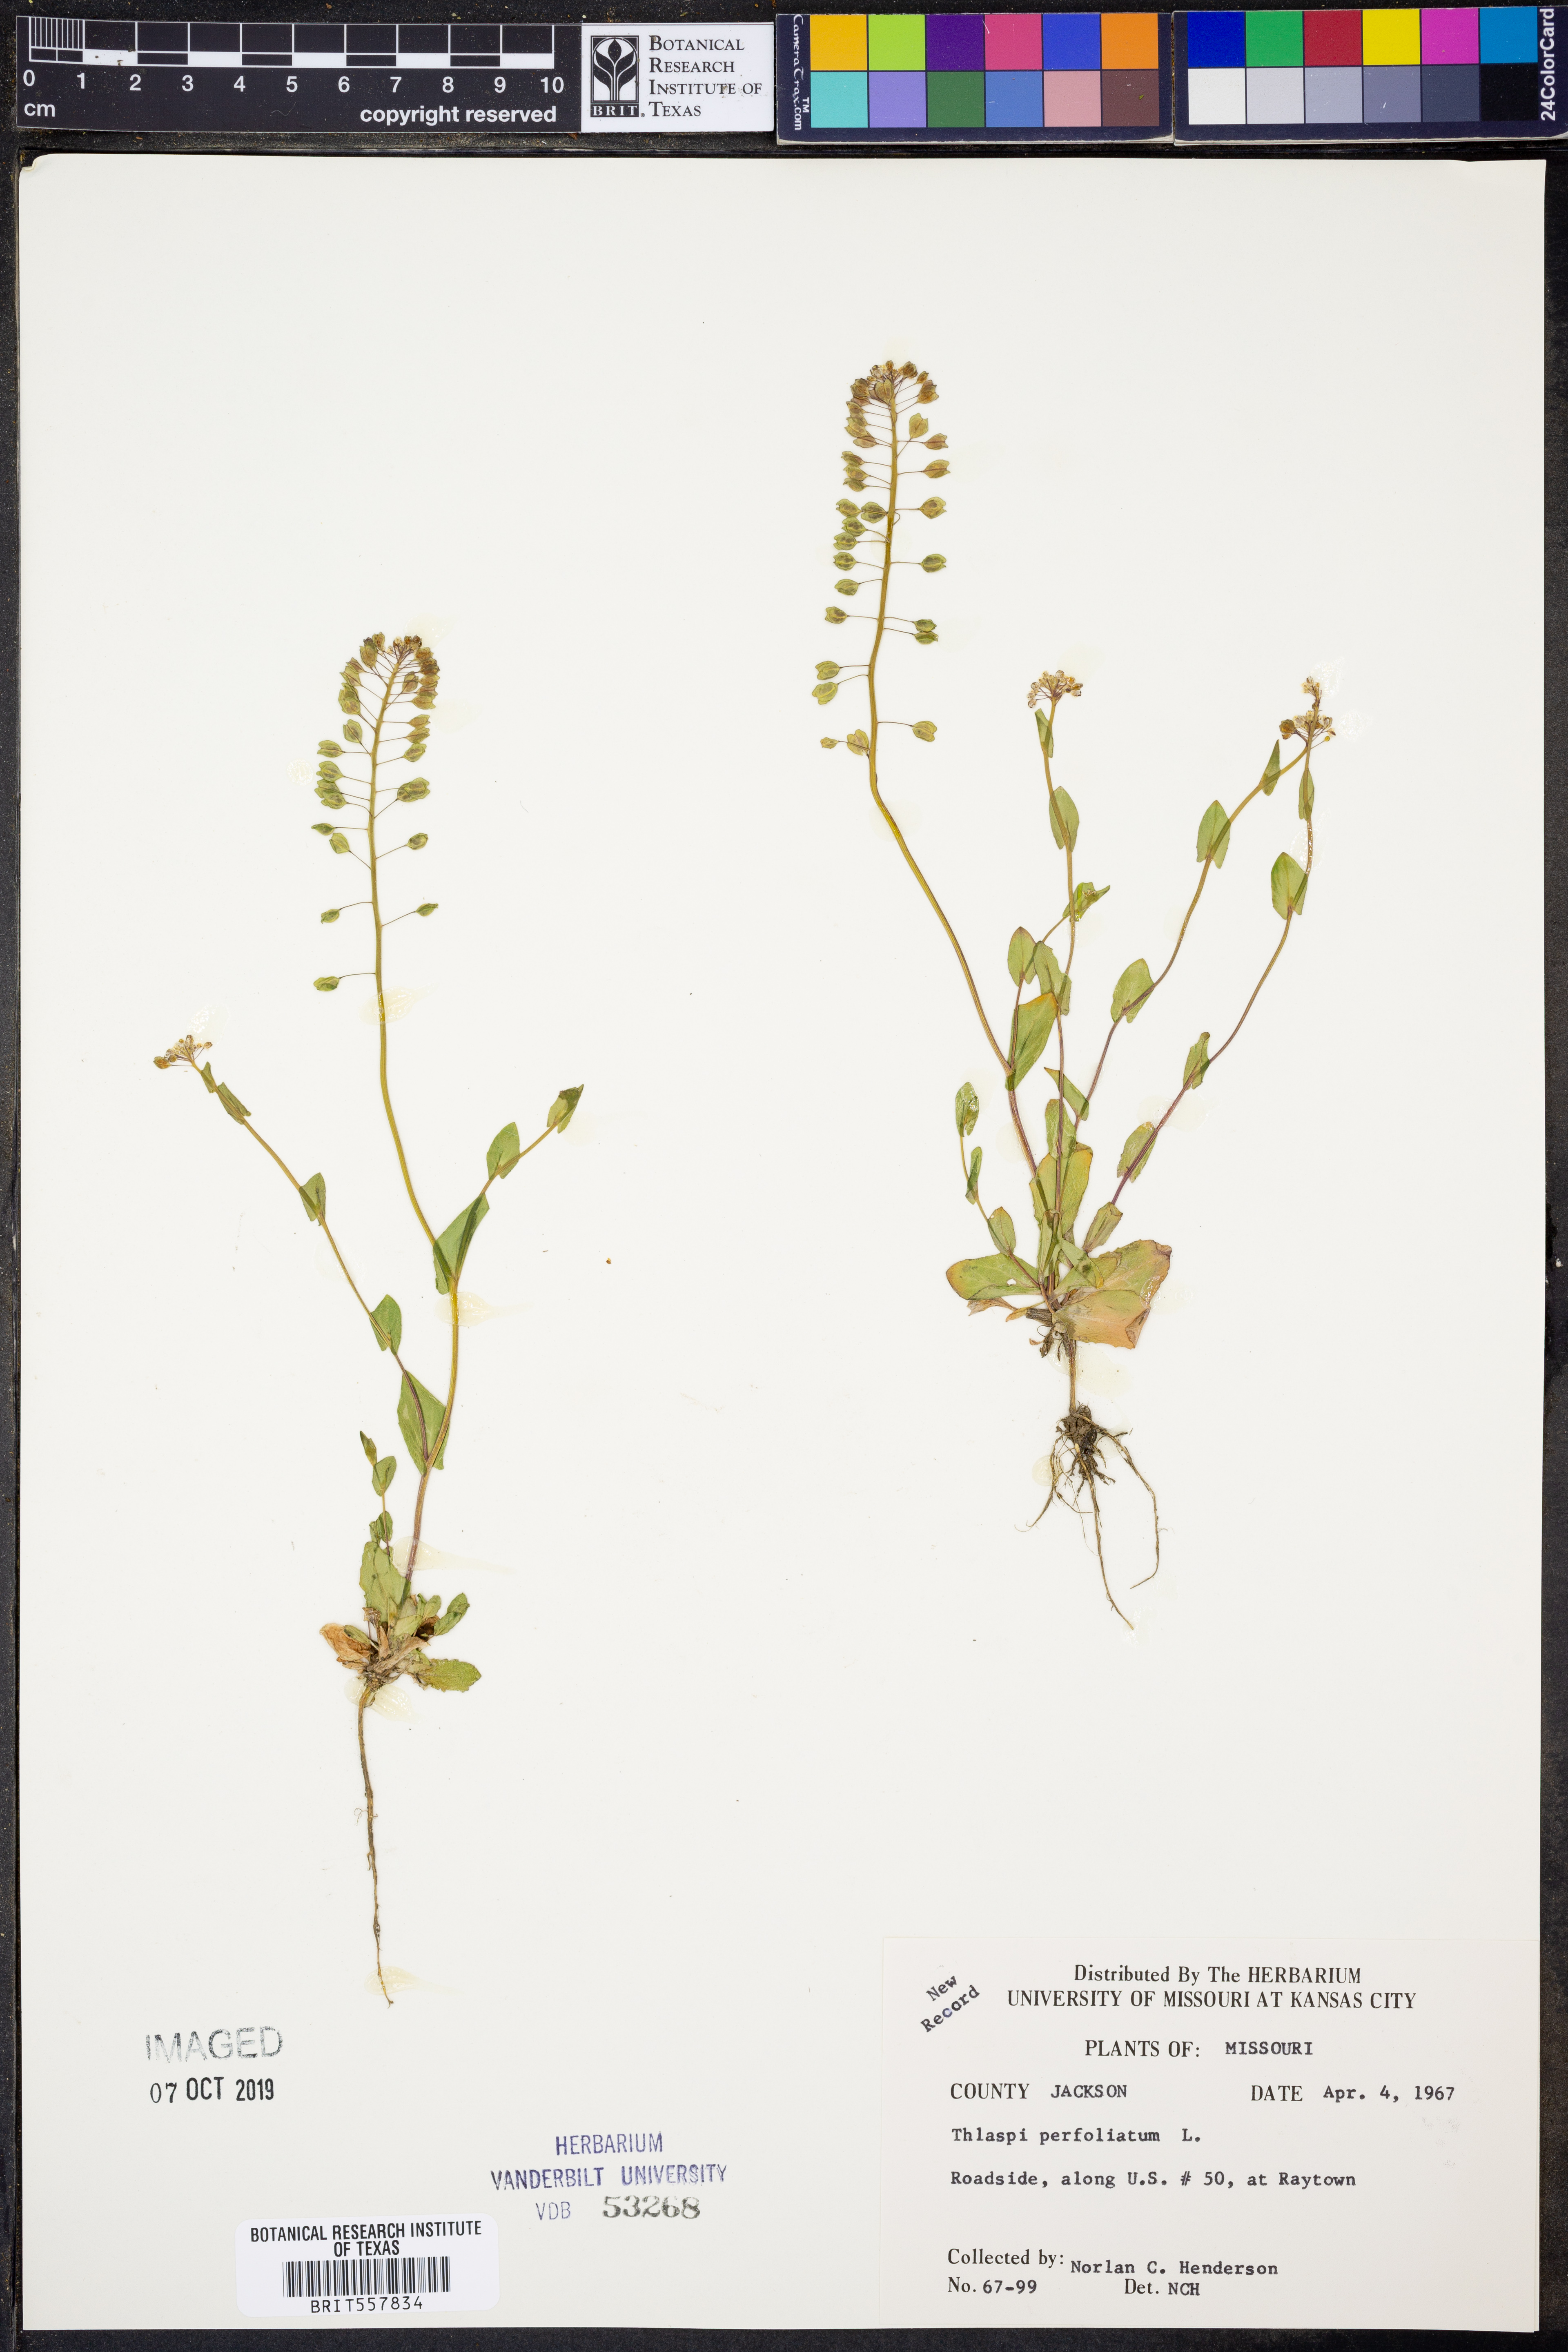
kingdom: Plantae
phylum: Tracheophyta
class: Magnoliopsida
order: Brassicales
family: Brassicaceae
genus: Noccaea
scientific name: Noccaea perfoliata
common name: Perfoliate pennycress
